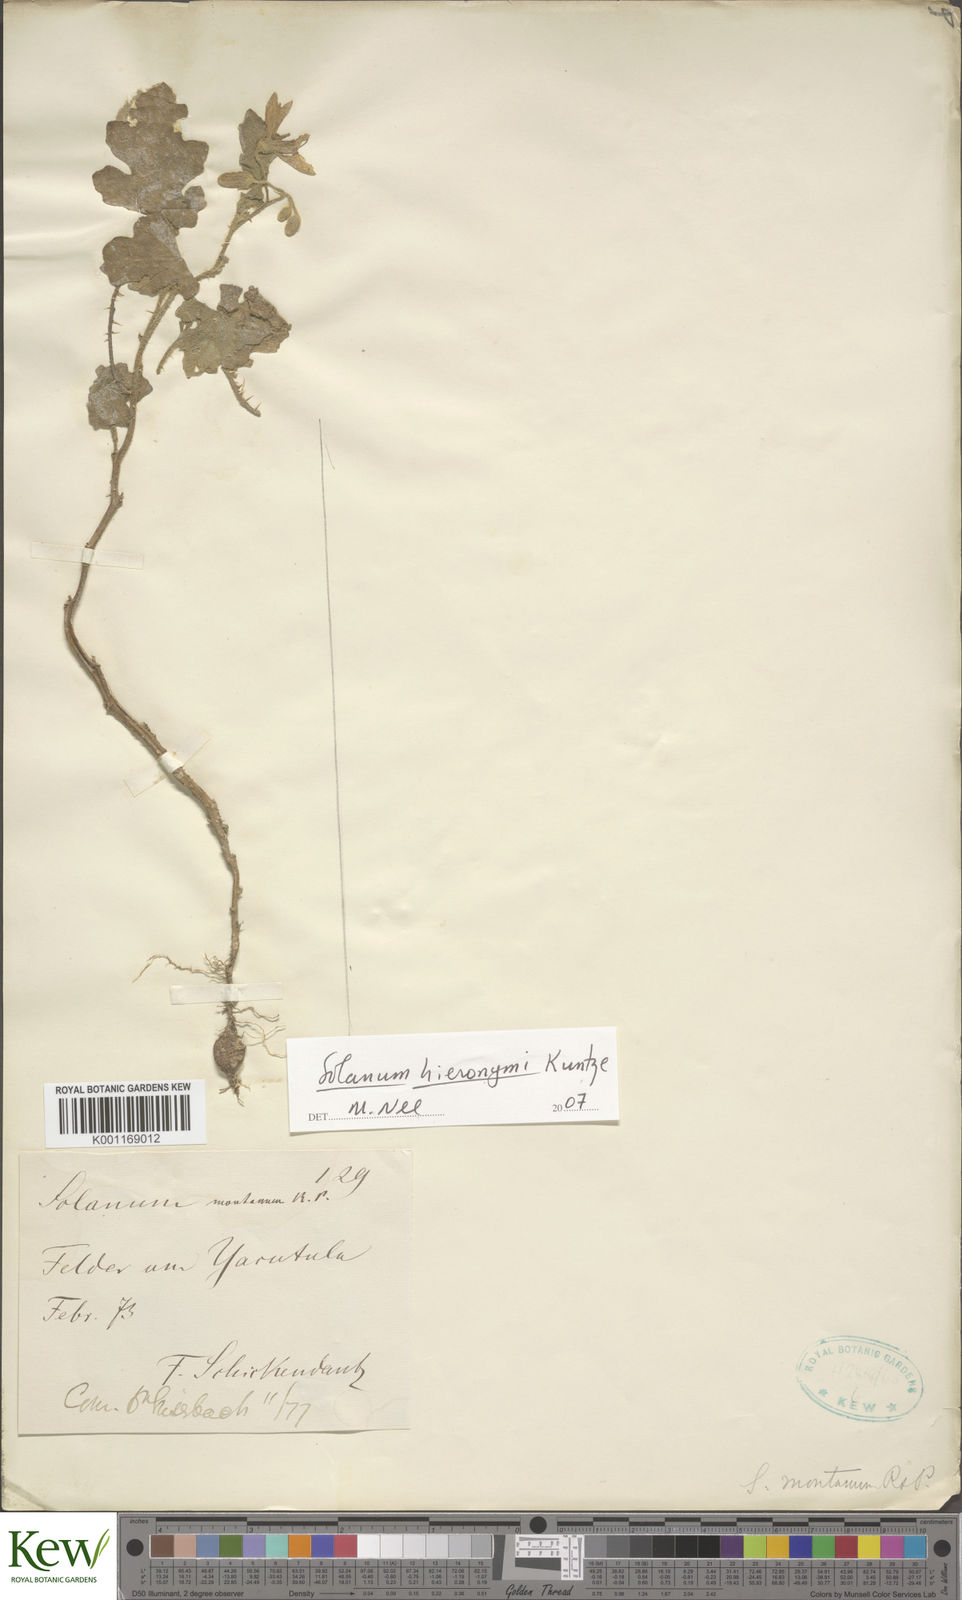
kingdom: Plantae
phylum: Tracheophyta
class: Magnoliopsida
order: Solanales
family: Solanaceae
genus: Solanum
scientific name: Solanum hieronymi
